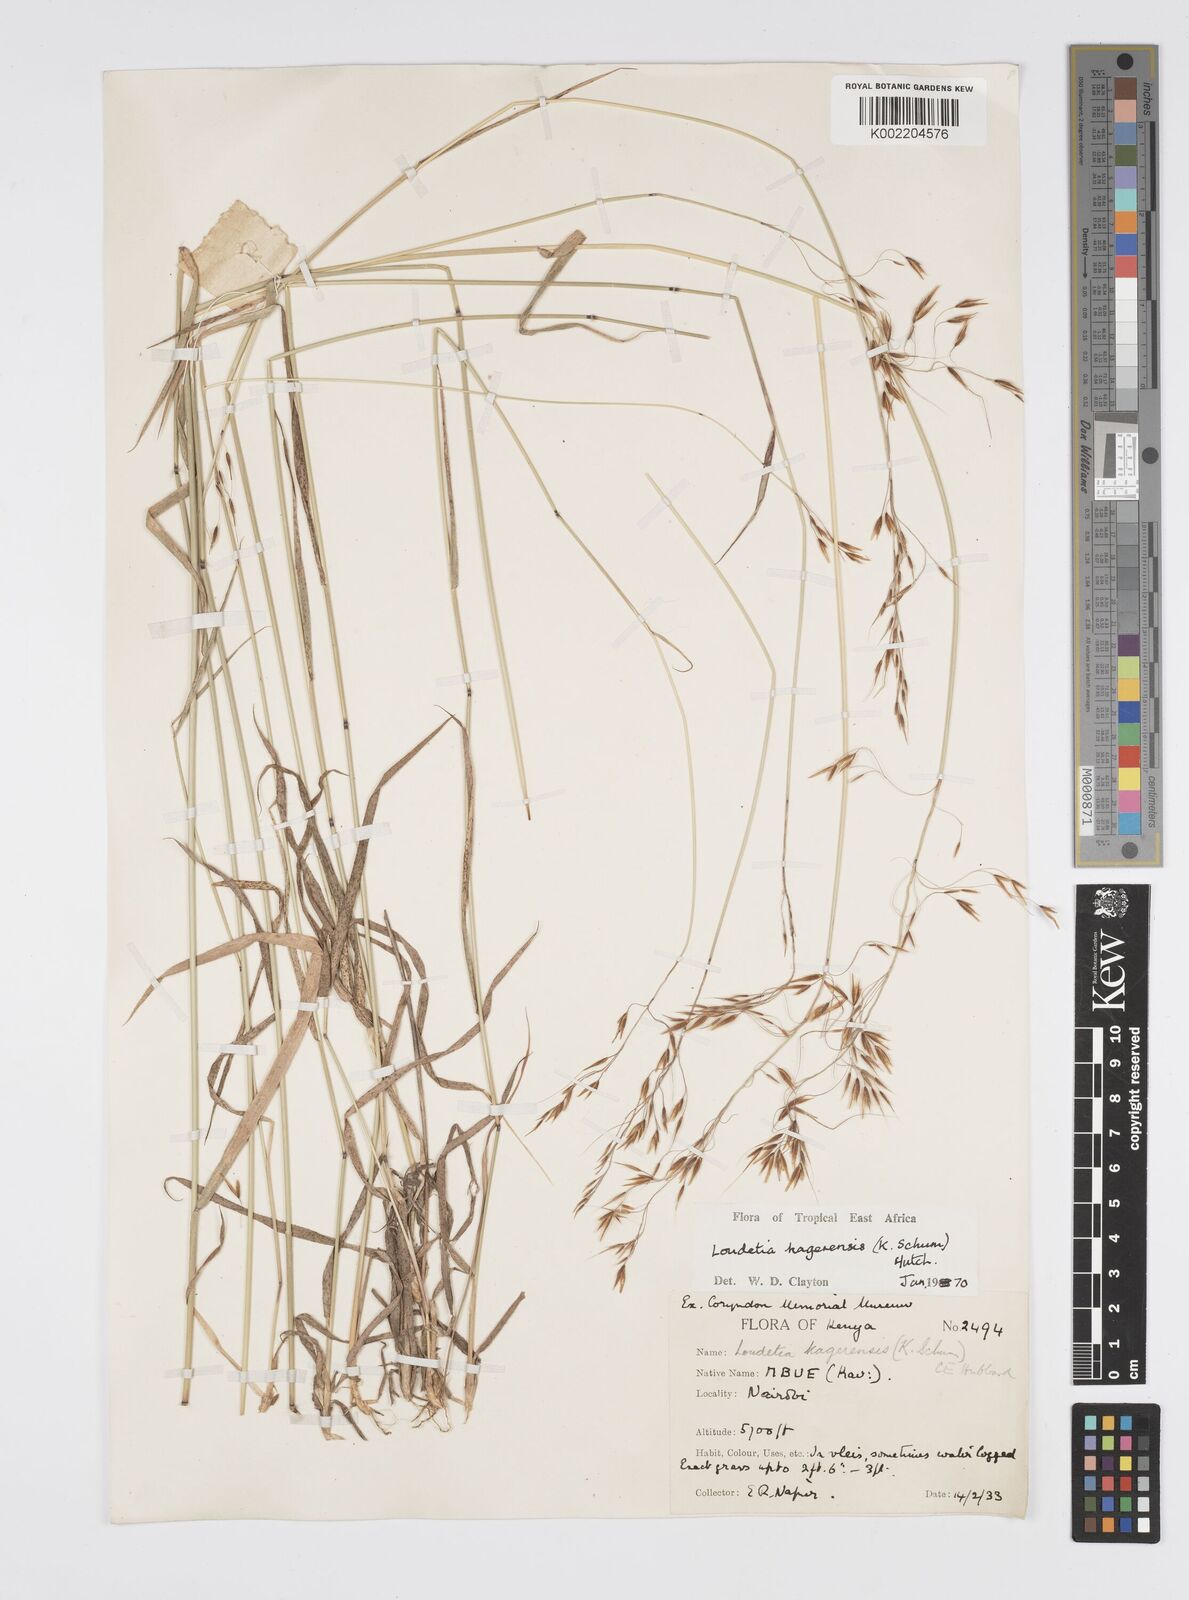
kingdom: Plantae
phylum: Tracheophyta
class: Liliopsida
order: Poales
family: Poaceae
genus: Loudetia
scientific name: Loudetia kagerensis
